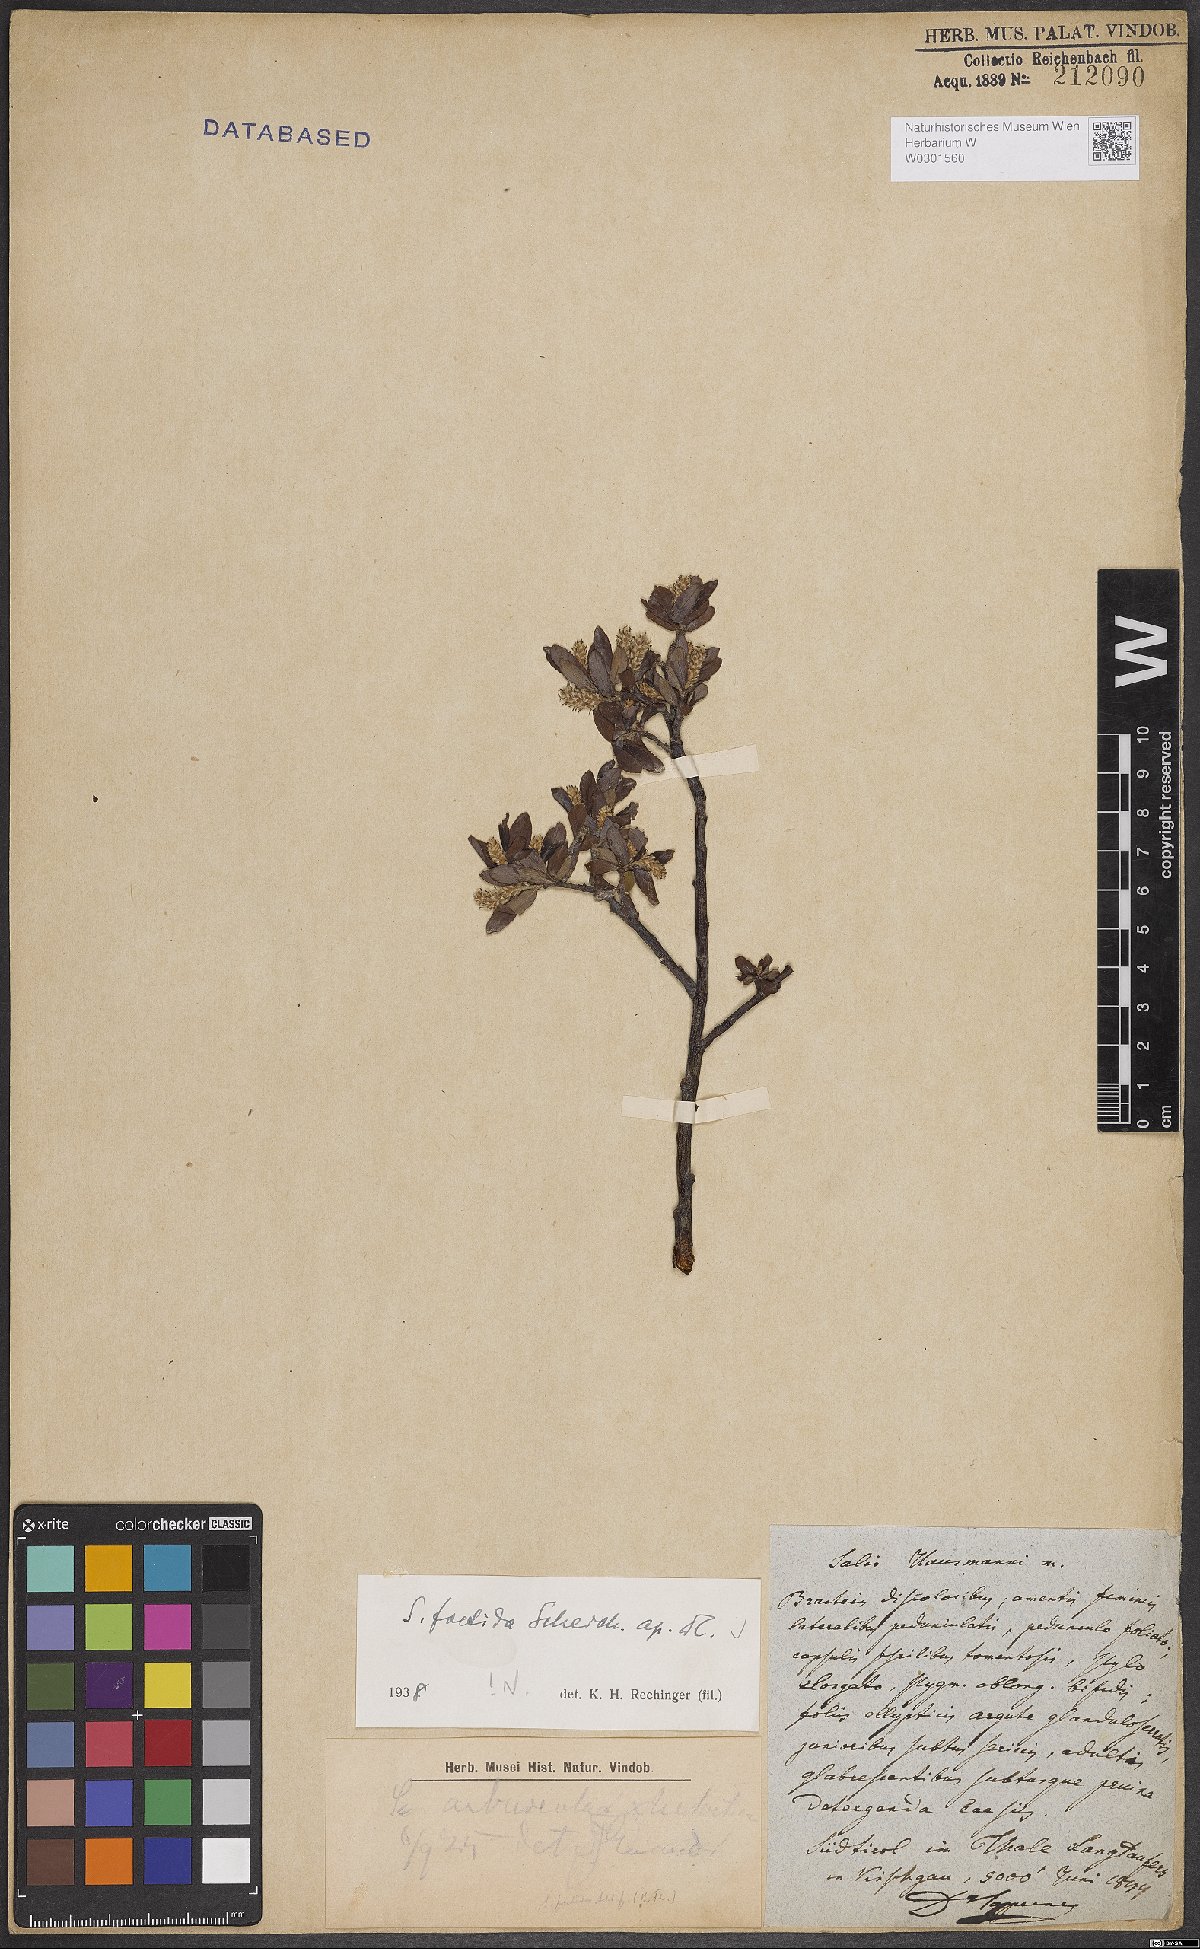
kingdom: Plantae
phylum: Tracheophyta
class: Magnoliopsida
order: Malpighiales
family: Salicaceae
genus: Salix
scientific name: Salix foetida
